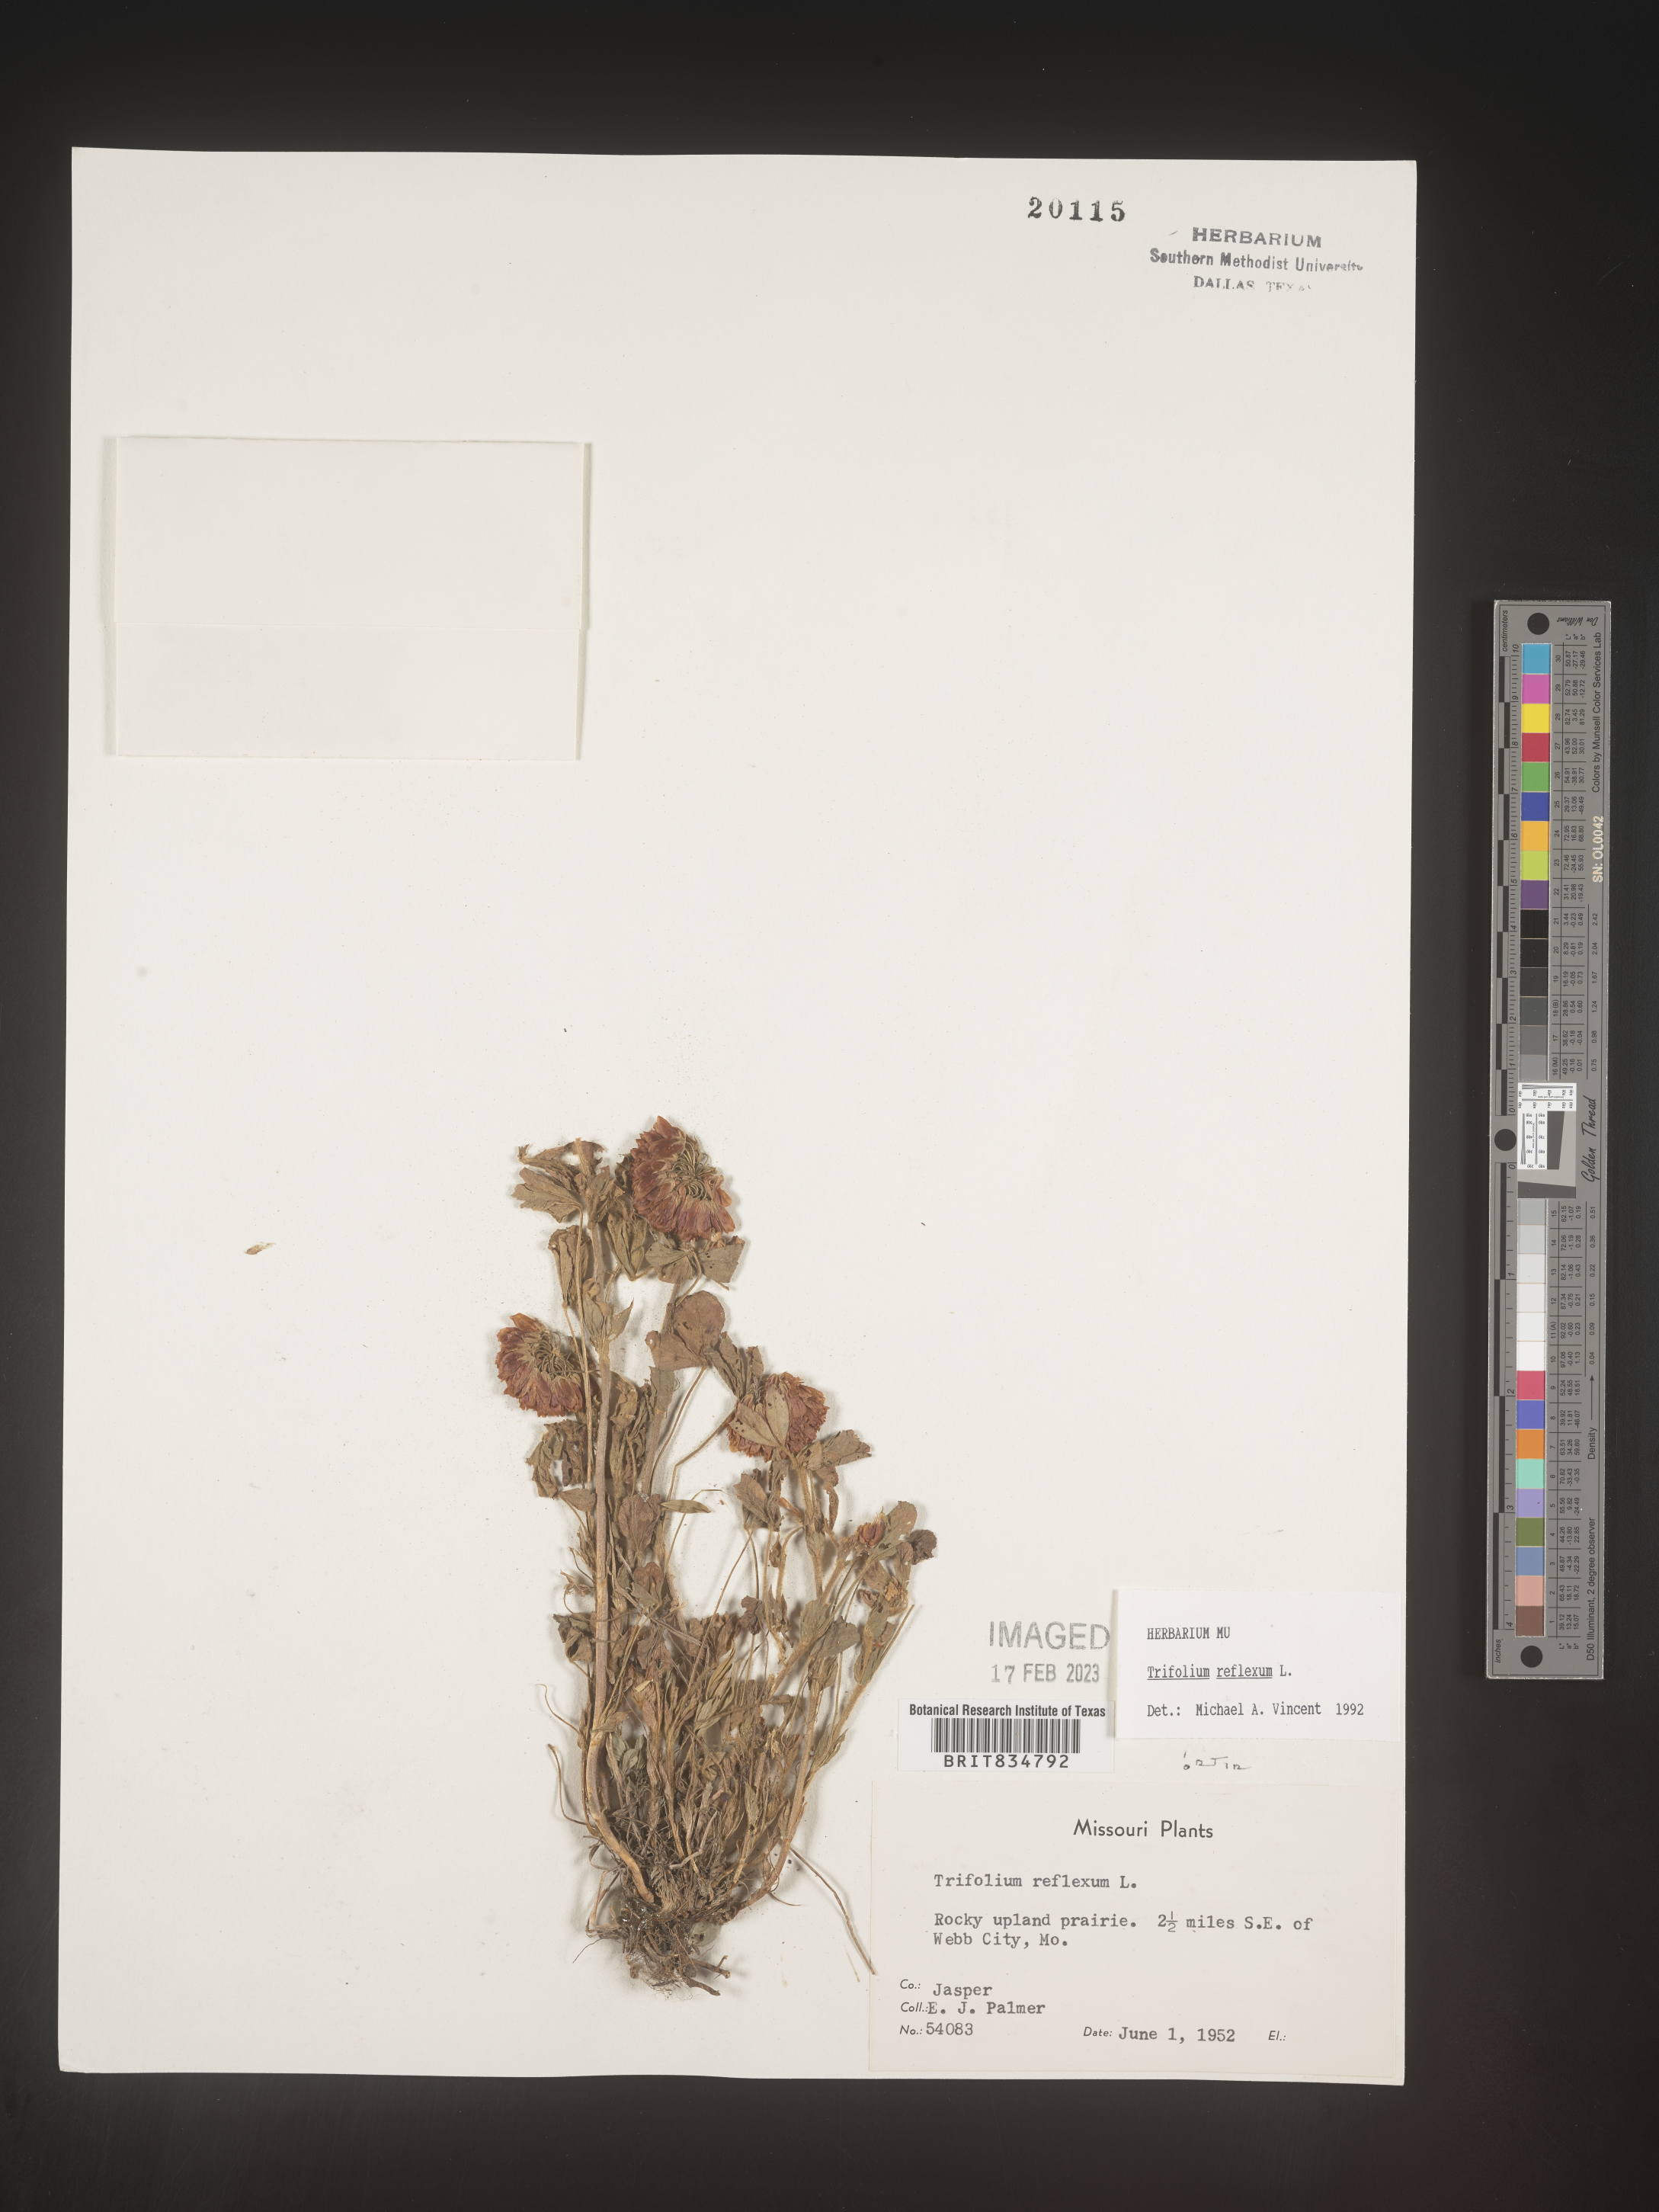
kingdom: Plantae
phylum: Tracheophyta
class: Magnoliopsida
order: Fabales
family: Fabaceae
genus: Trifolium
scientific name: Trifolium reflexum
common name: Buffalo clover
